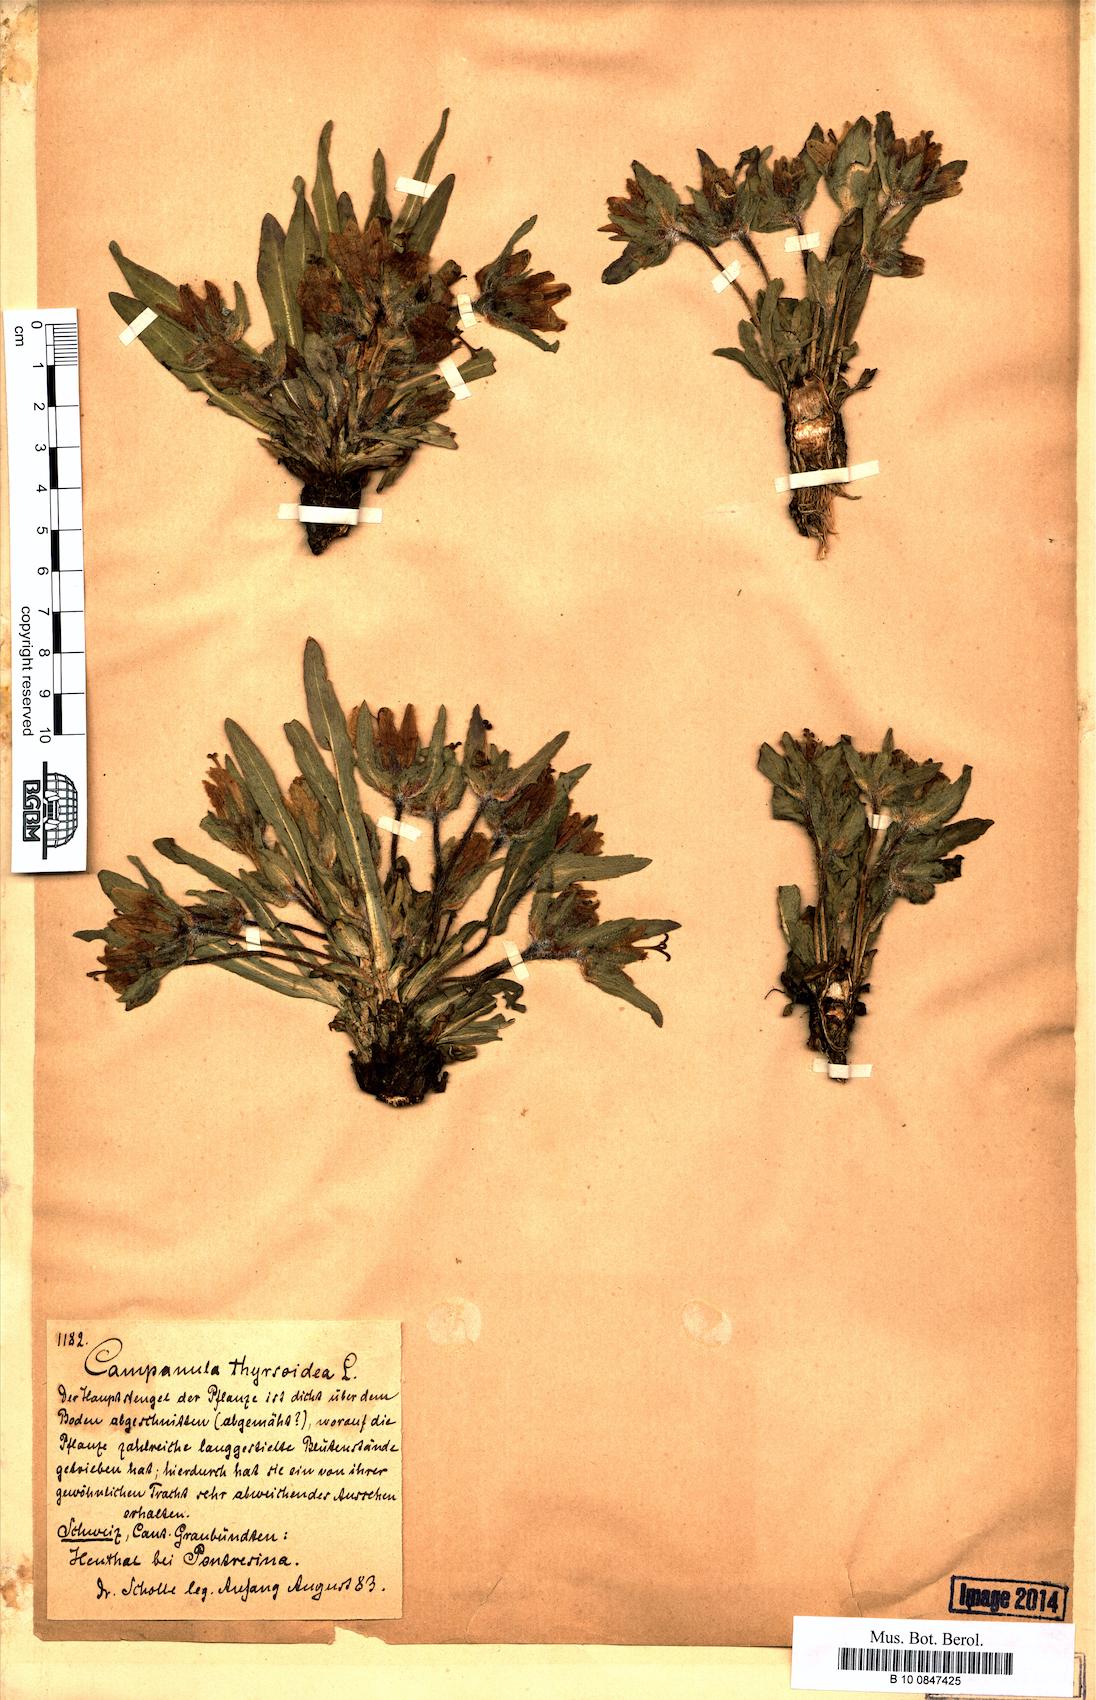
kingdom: Plantae
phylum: Tracheophyta
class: Magnoliopsida
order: Asterales
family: Campanulaceae
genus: Campanula
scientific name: Campanula thyrsoides
